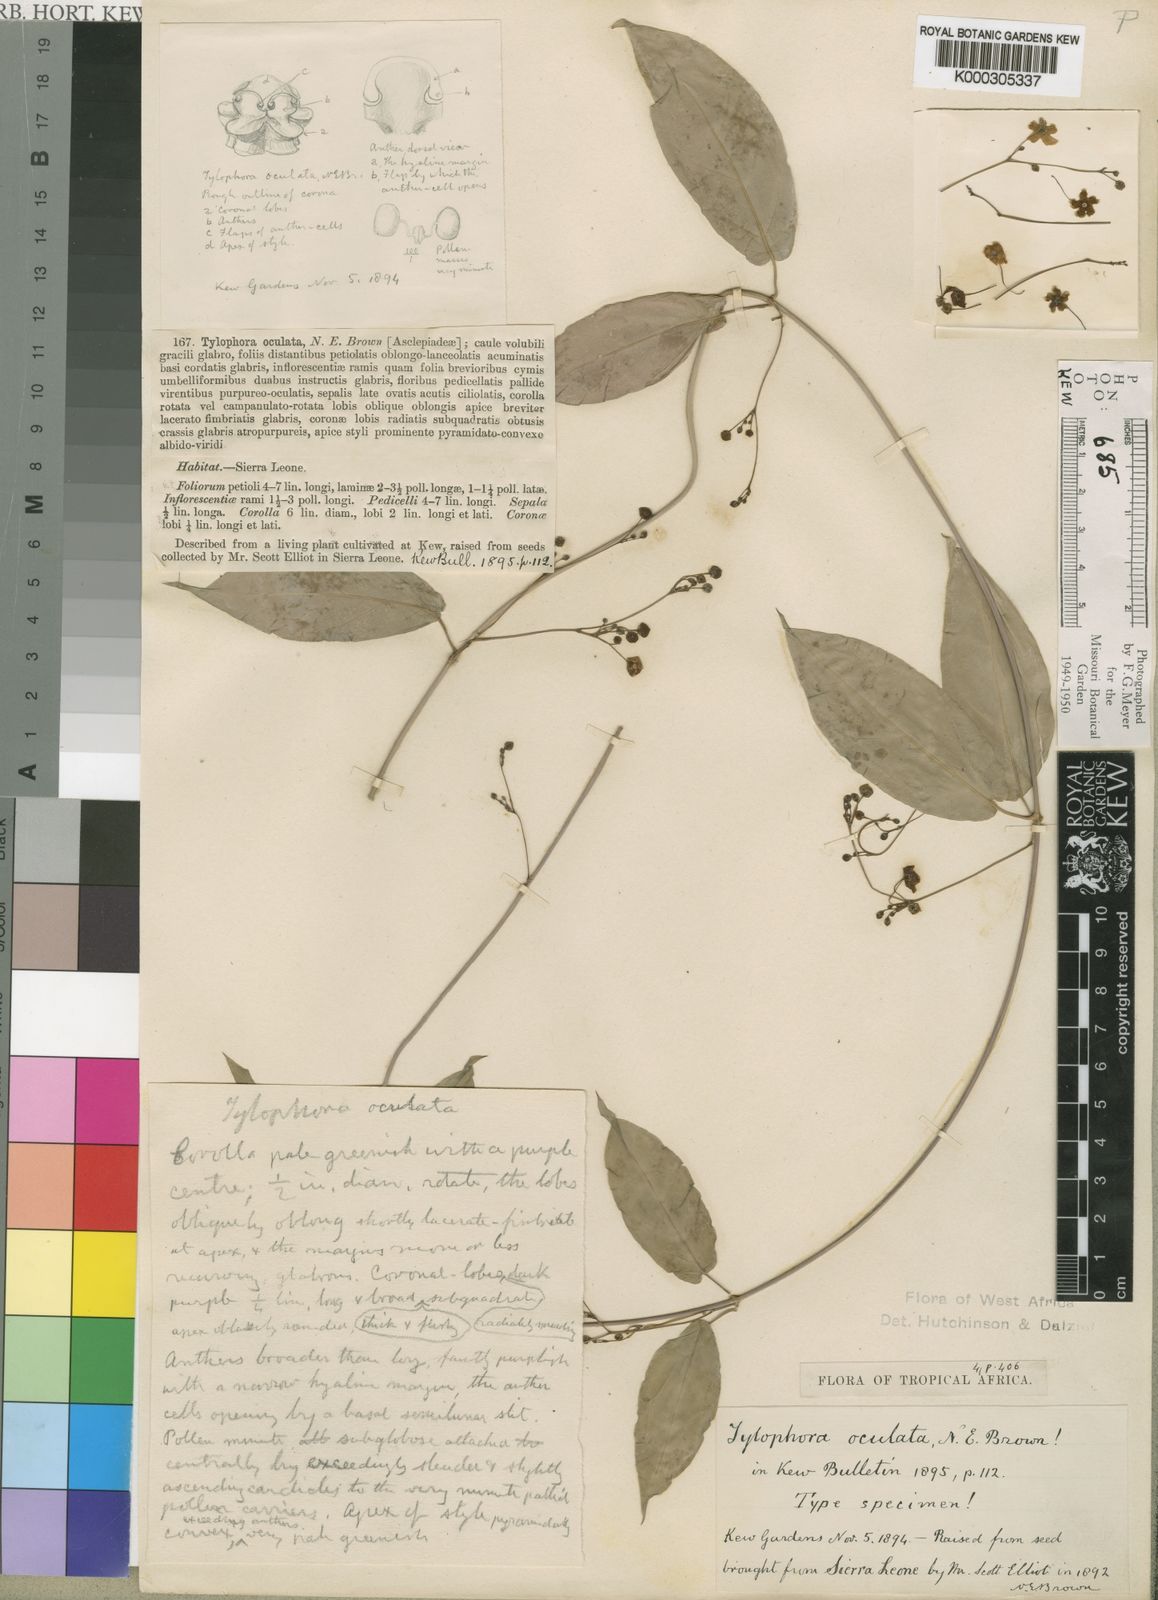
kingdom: Plantae
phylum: Tracheophyta
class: Magnoliopsida
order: Gentianales
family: Apocynaceae
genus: Vincetoxicum
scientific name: Vincetoxicum oculatum
